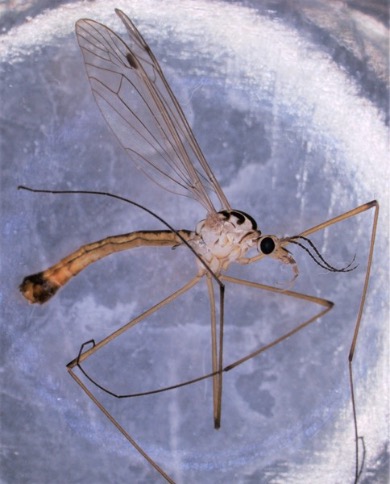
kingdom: Animalia
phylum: Arthropoda
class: Insecta
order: Diptera
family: Tipulidae
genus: Nephrotoma
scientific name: Nephrotoma cornicina
